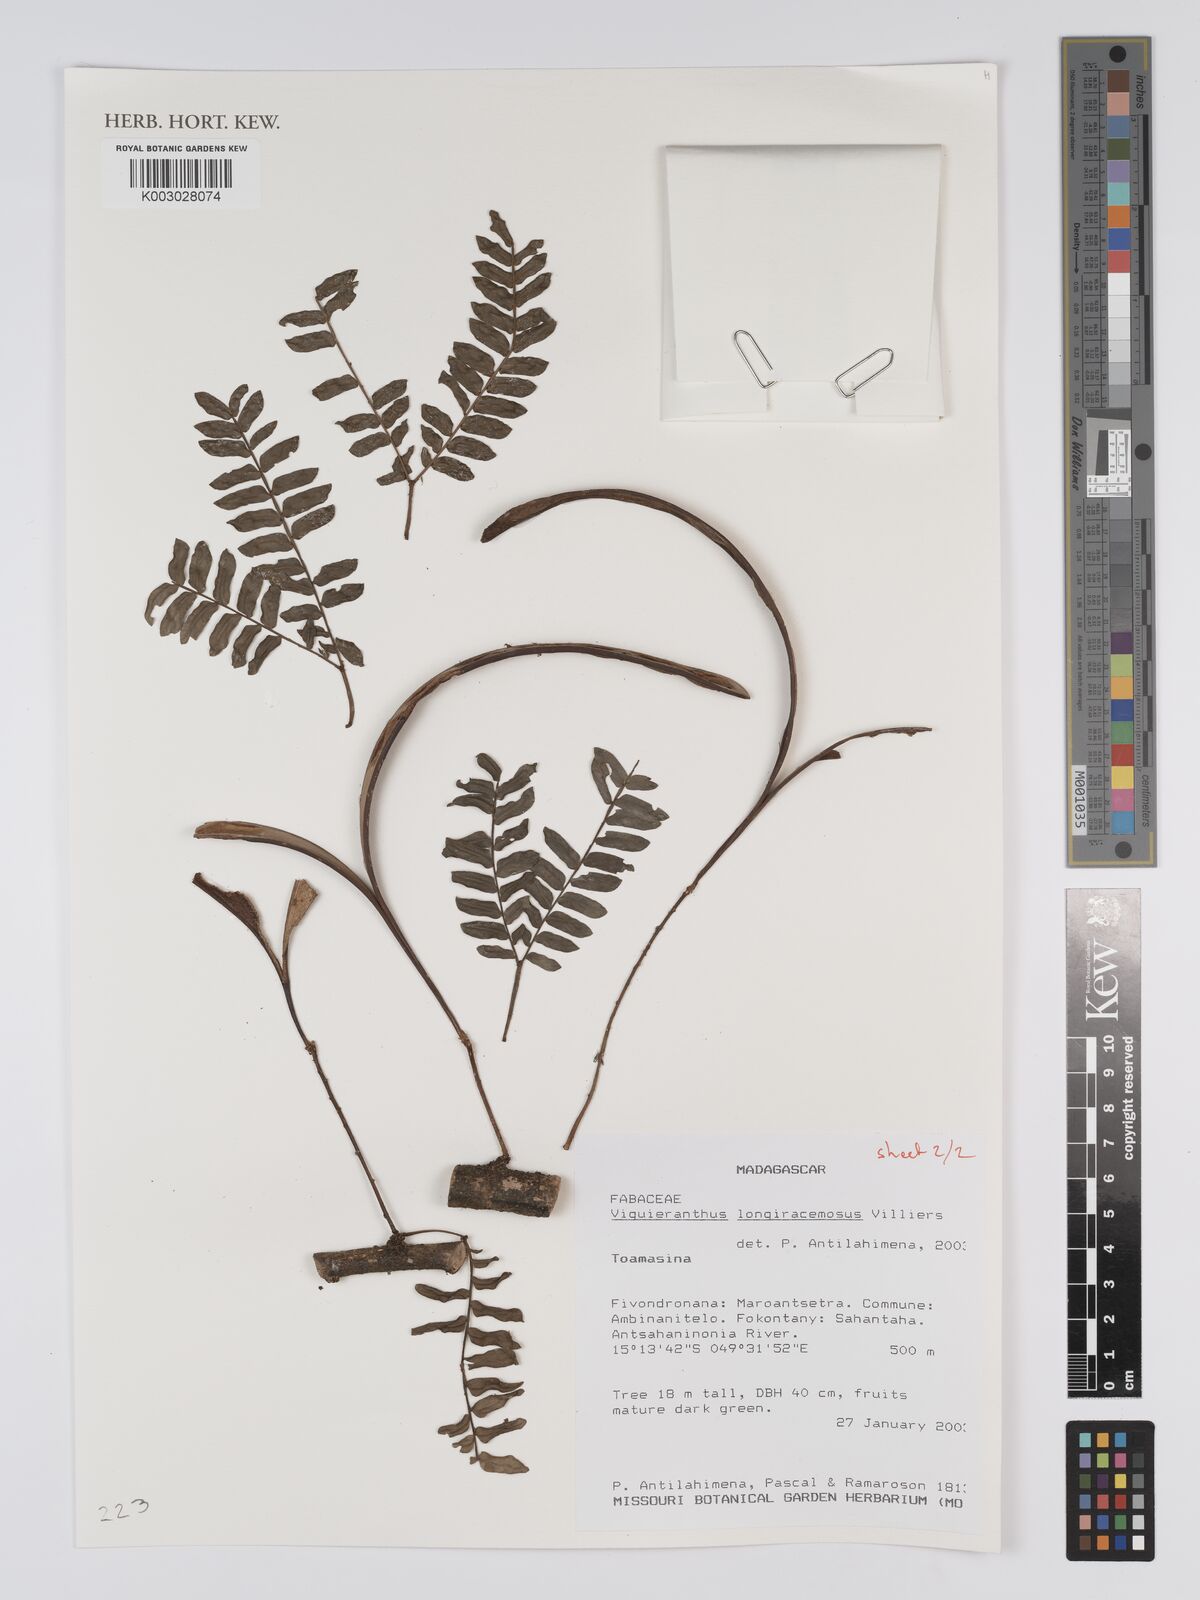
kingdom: Plantae
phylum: Tracheophyta
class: Magnoliopsida
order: Fabales
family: Fabaceae
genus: Viguieranthus
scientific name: Viguieranthus longiracemosus
